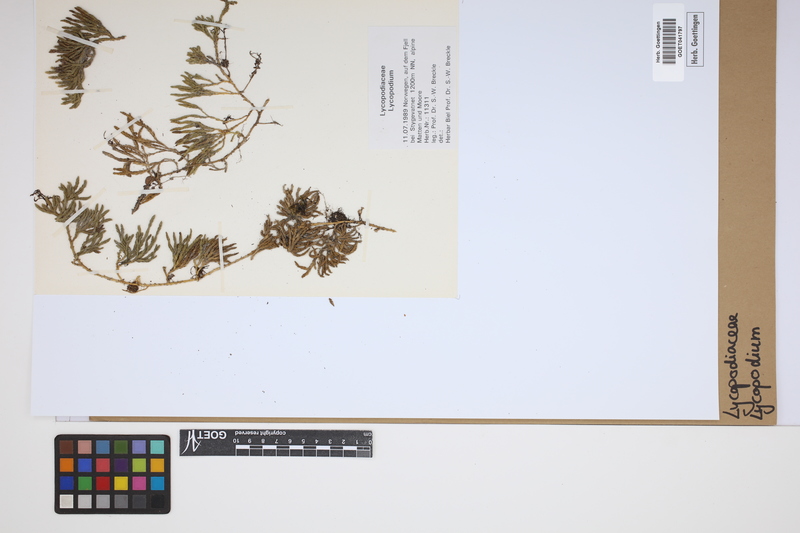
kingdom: Plantae
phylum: Tracheophyta
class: Lycopodiopsida
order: Lycopodiales
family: Lycopodiaceae
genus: Lycopodium
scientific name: Lycopodium
